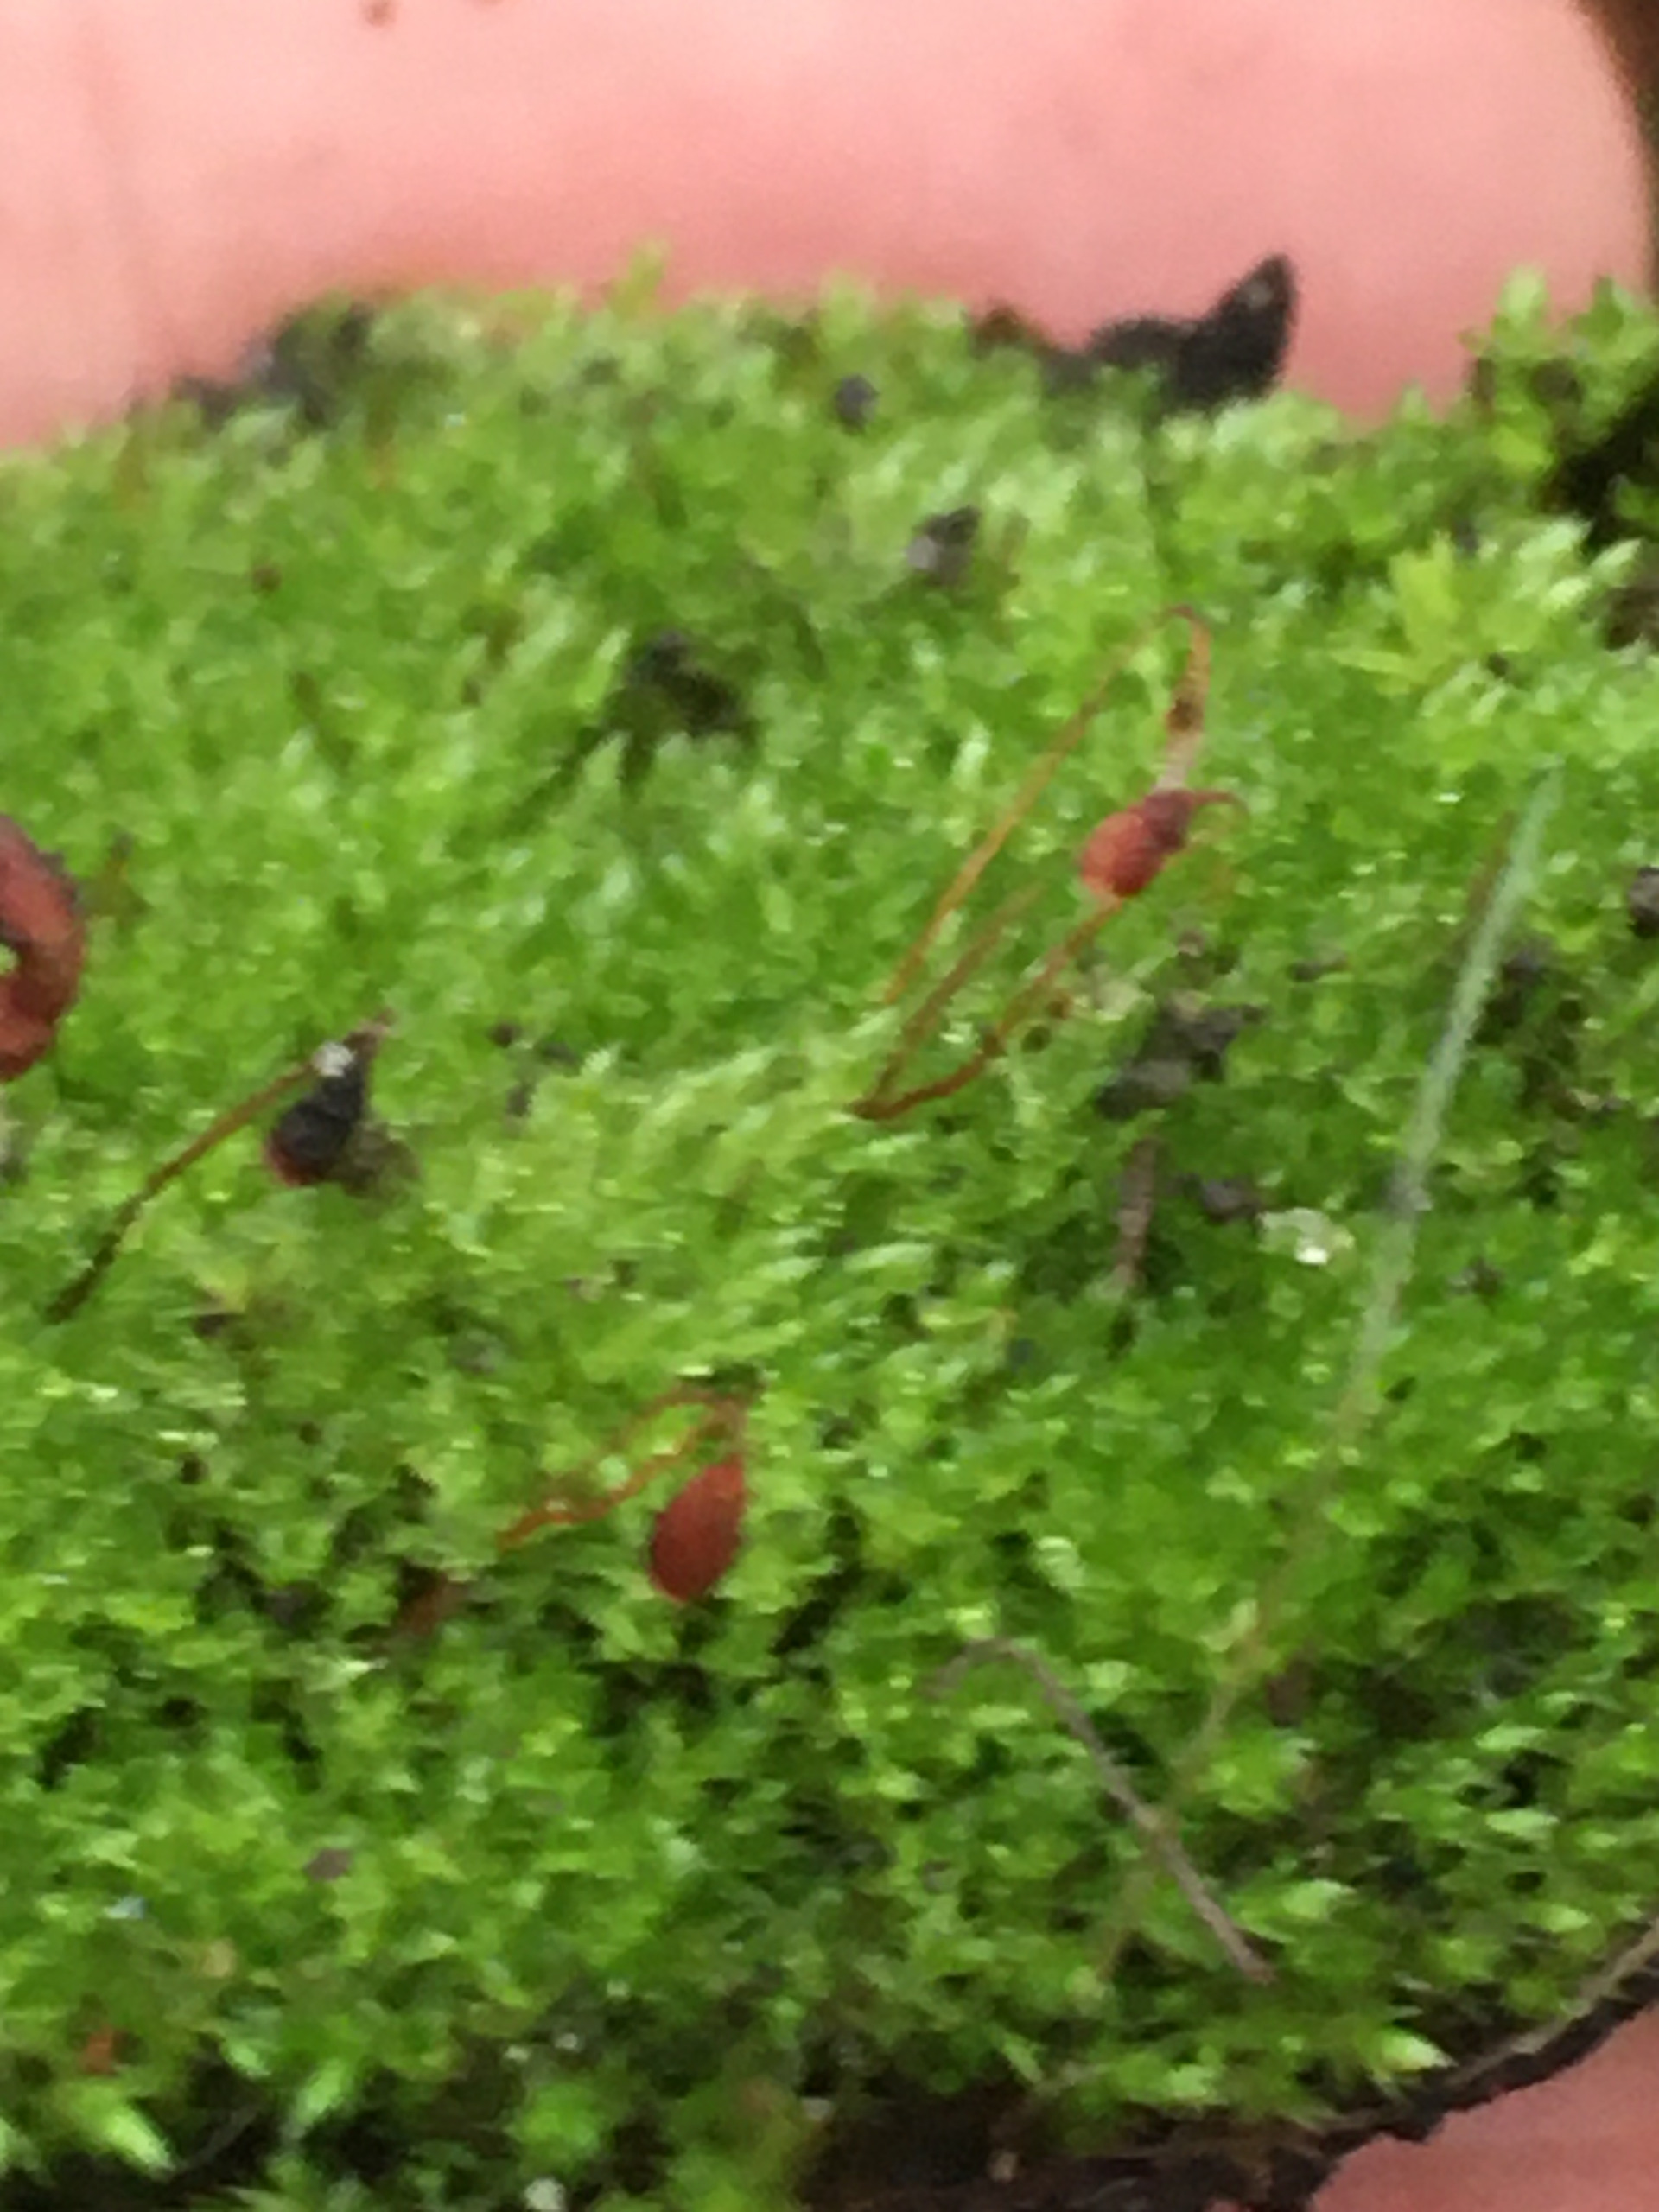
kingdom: Plantae
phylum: Bryophyta
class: Bryopsida
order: Bryales
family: Bryaceae
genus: Bryum
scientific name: Bryum
